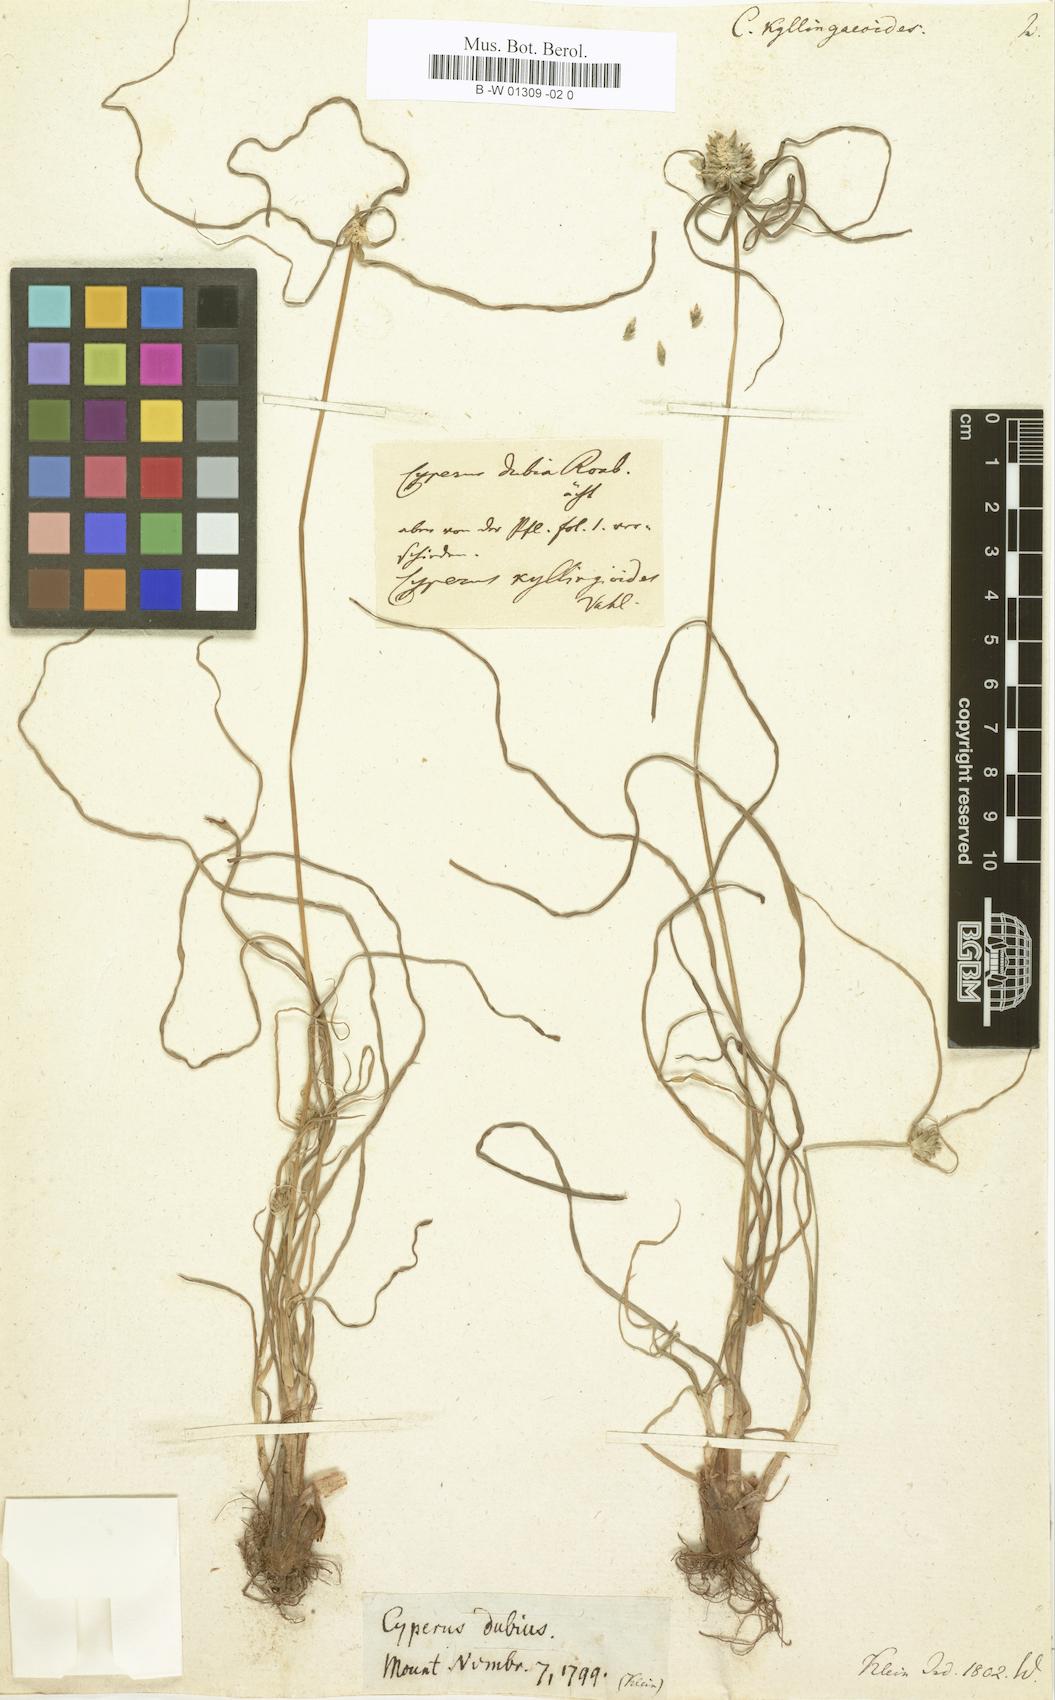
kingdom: Plantae
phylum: Tracheophyta
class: Liliopsida
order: Poales
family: Cyperaceae
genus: Cyperus
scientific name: Cyperus kyllingaeoides
